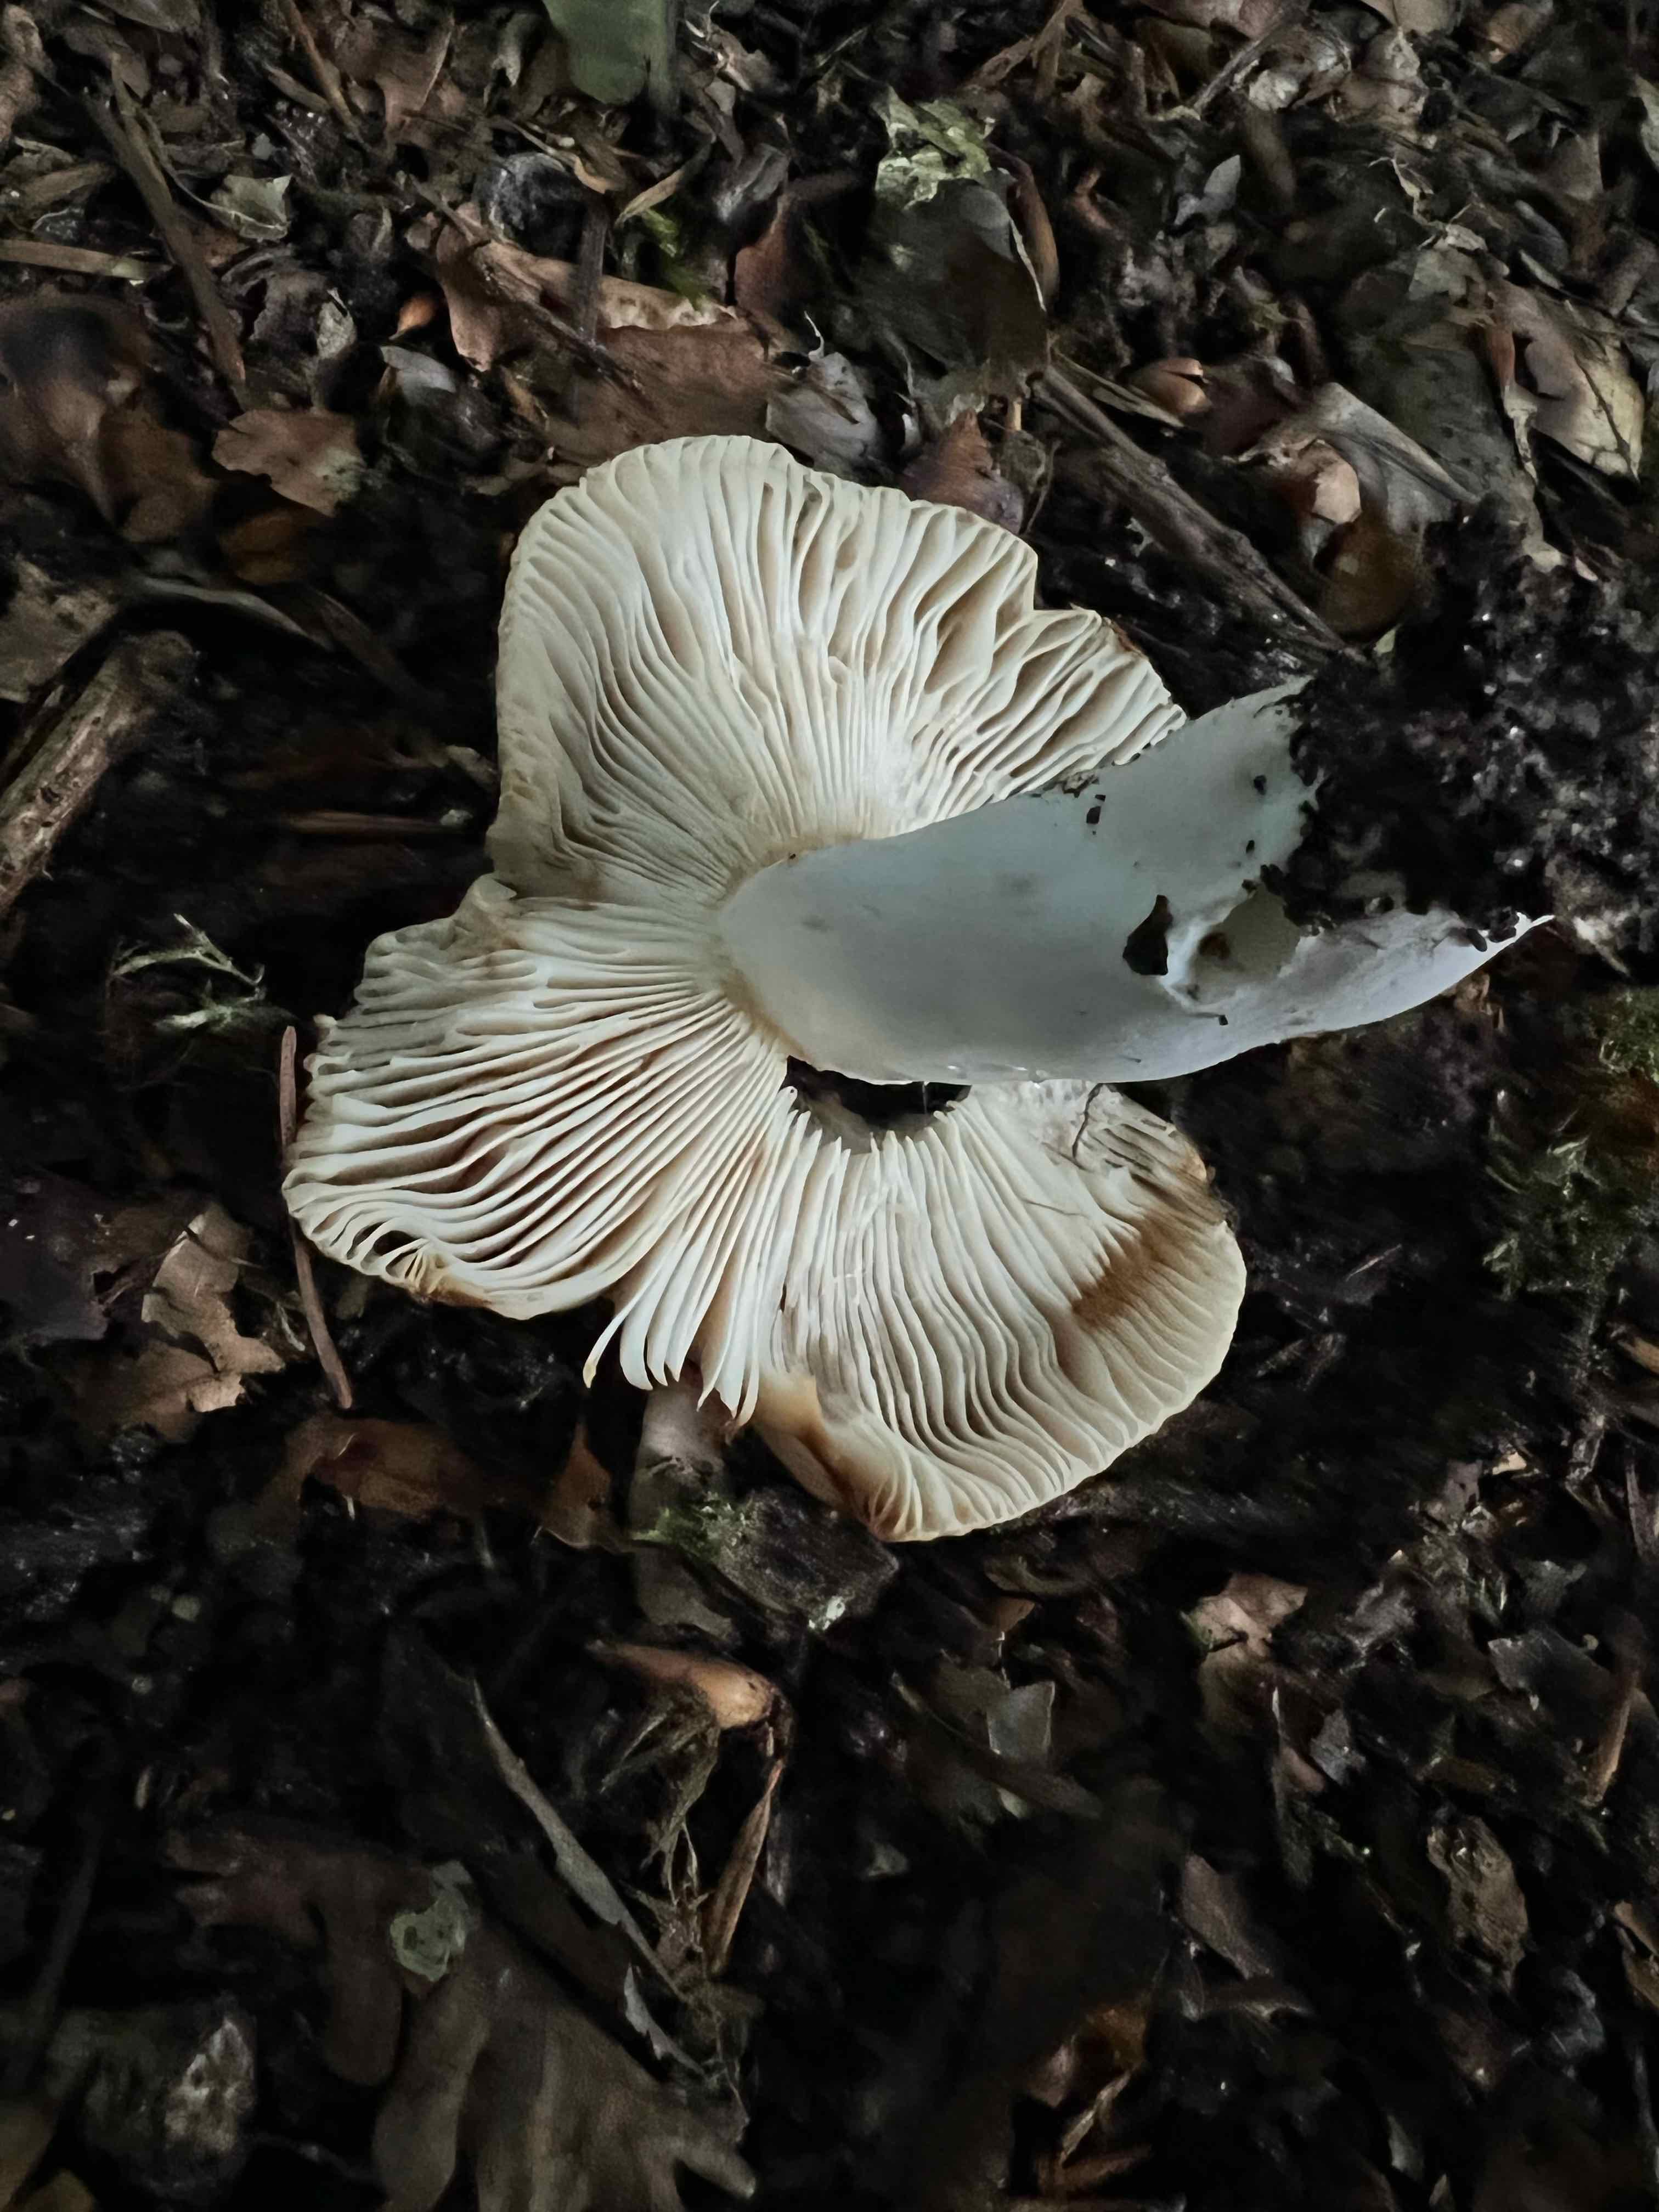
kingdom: Fungi
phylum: Basidiomycota
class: Agaricomycetes
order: Russulales
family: Russulaceae
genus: Russula
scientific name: Russula
